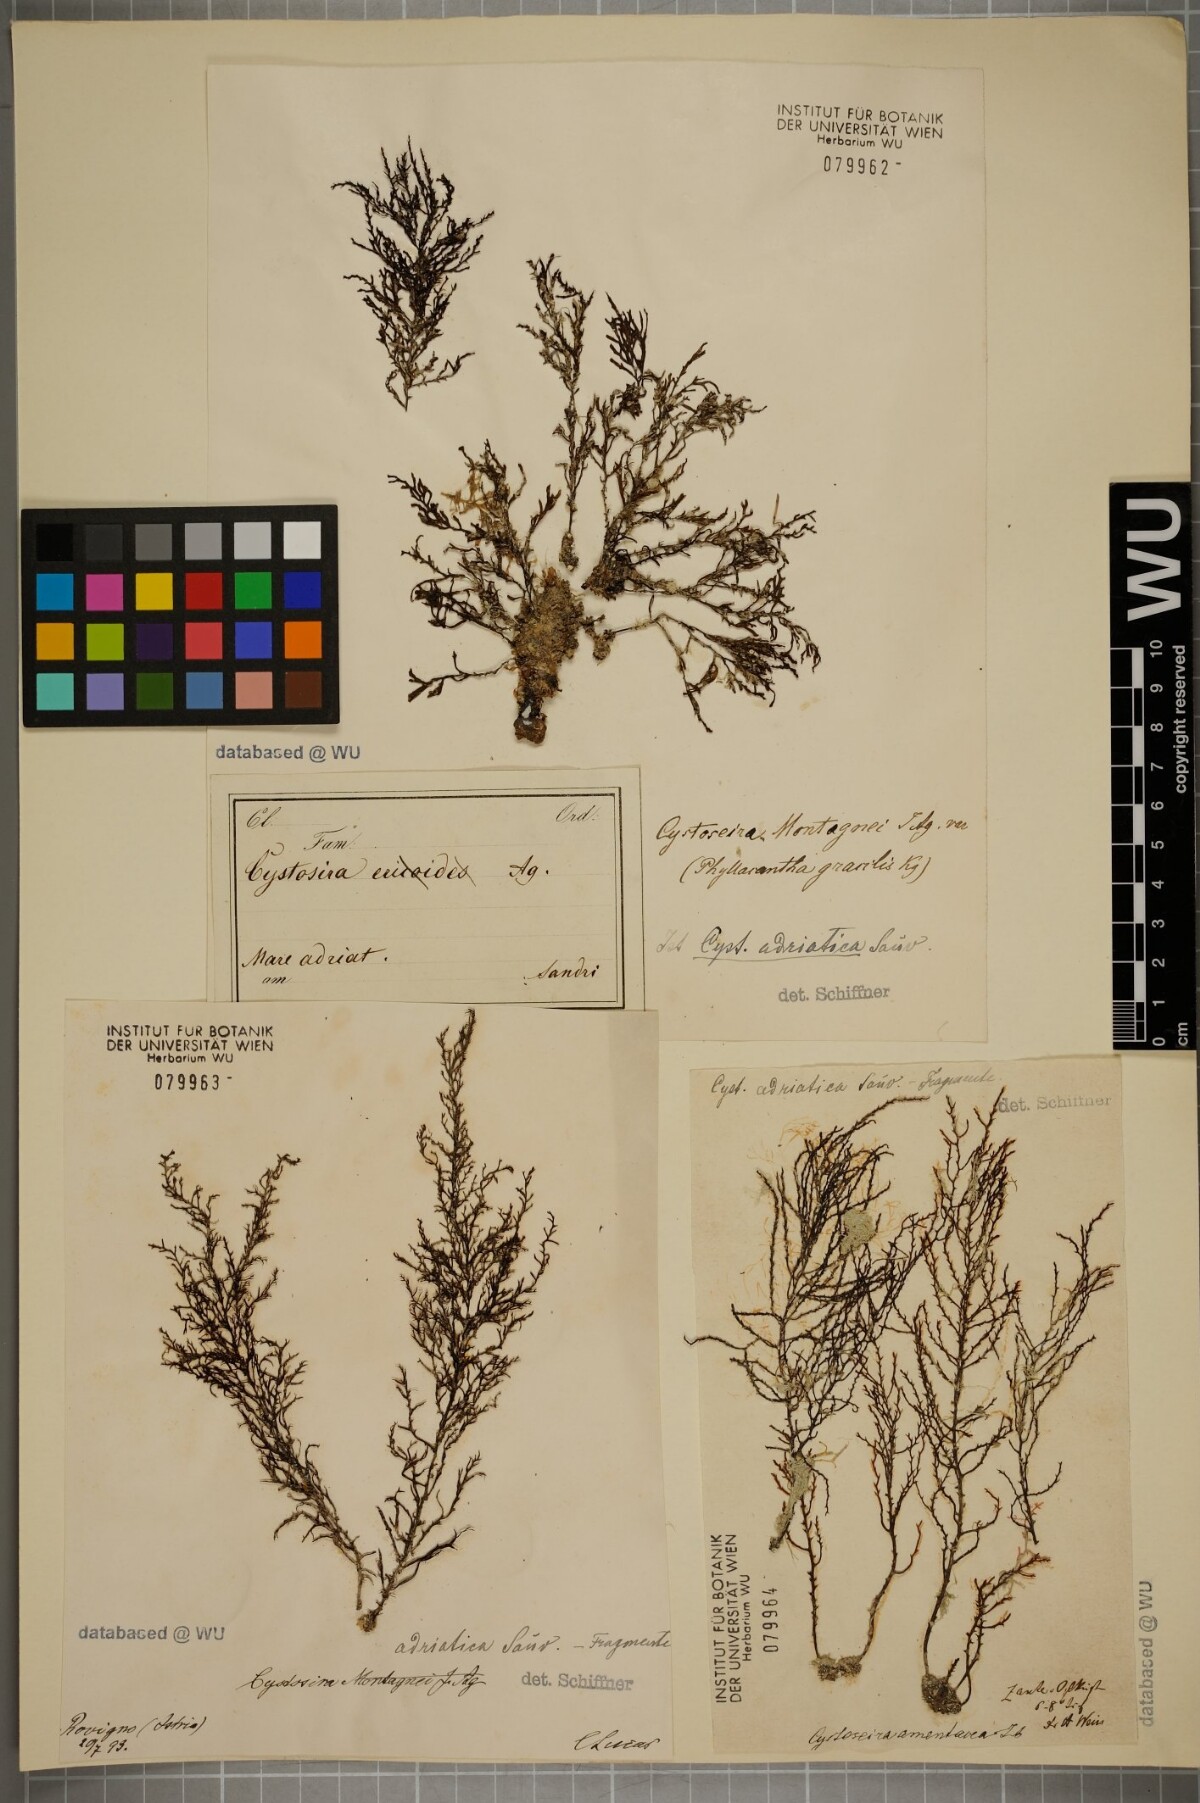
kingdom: Chromista
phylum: Ochrophyta
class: Phaeophyceae
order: Fucales
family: Sargassaceae
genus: Cystoseira
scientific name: Cystoseira Gongolaria montagnei
